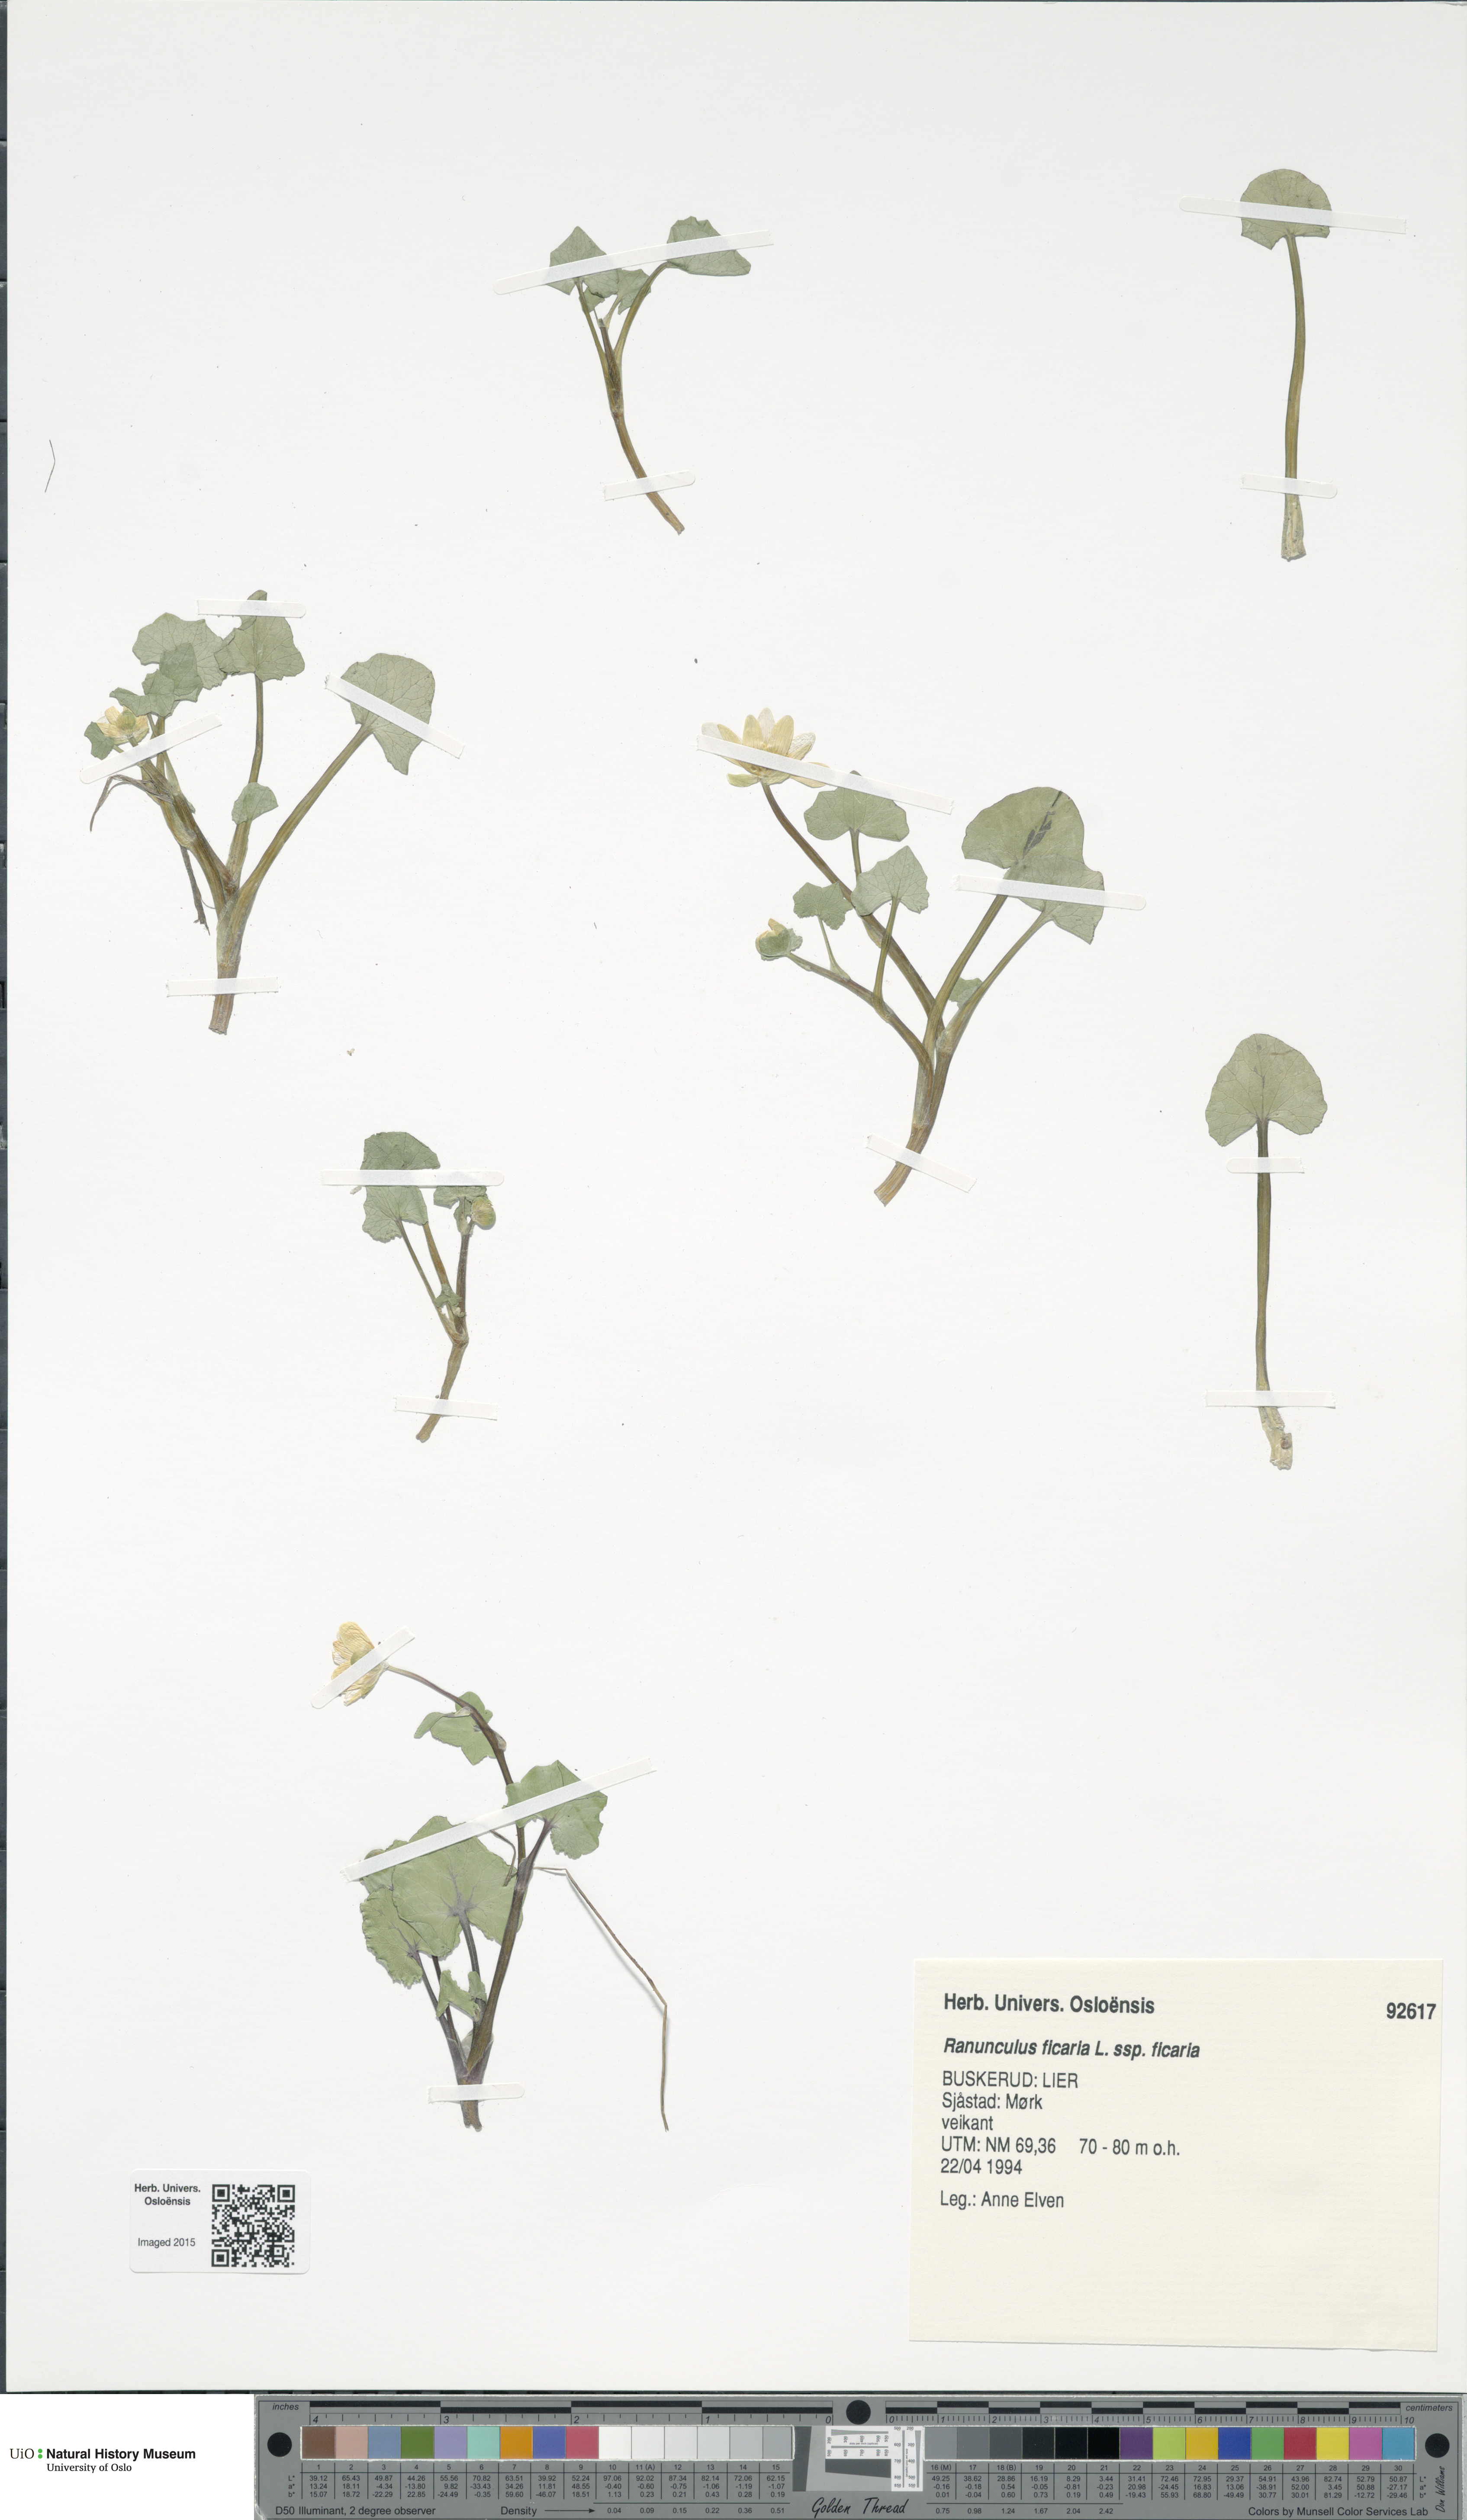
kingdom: Plantae
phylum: Tracheophyta
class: Magnoliopsida
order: Ranunculales
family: Ranunculaceae
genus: Ficaria
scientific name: Ficaria verna
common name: Lesser celandine
